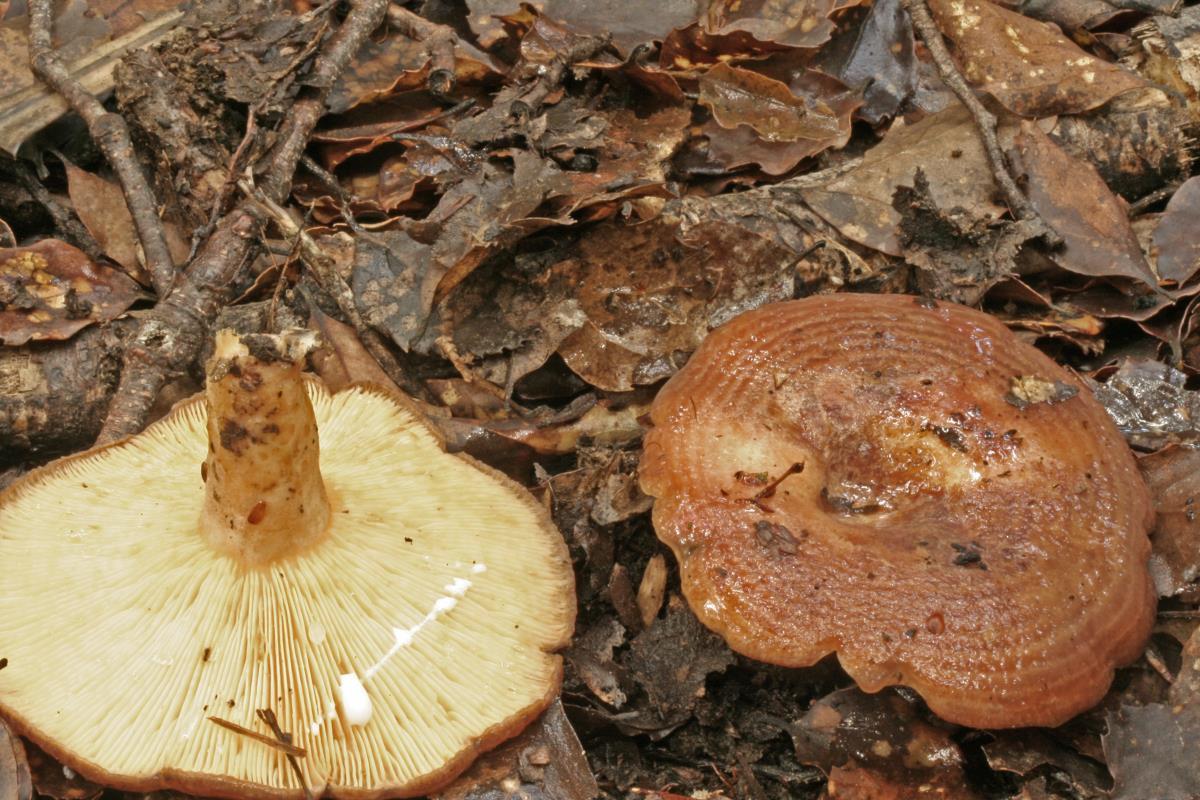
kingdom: Fungi
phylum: Basidiomycota
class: Agaricomycetes
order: Russulales
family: Russulaceae
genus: Lactarius
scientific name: Lactarius tawai
